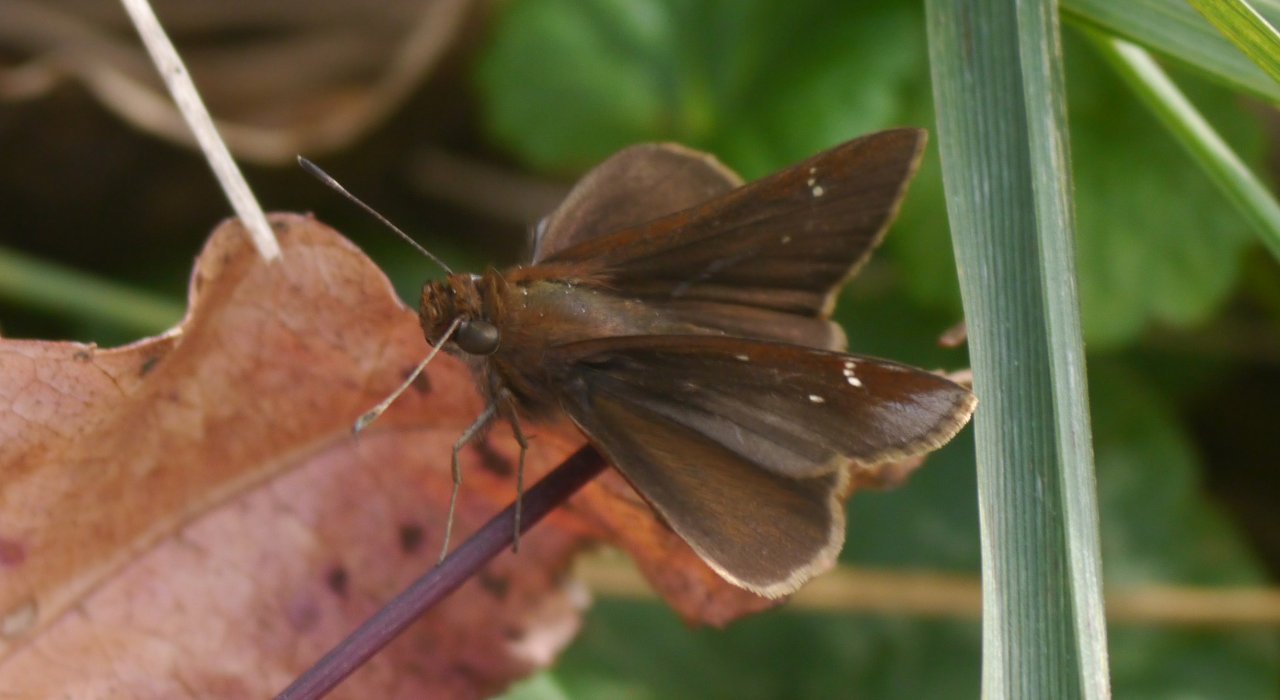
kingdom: Animalia
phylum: Arthropoda
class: Insecta
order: Lepidoptera
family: Hesperiidae
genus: Lerema
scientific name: Lerema accius
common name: Clouded Skipper
